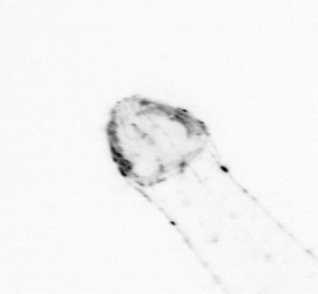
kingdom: Animalia
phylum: Chaetognatha
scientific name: Chaetognatha
